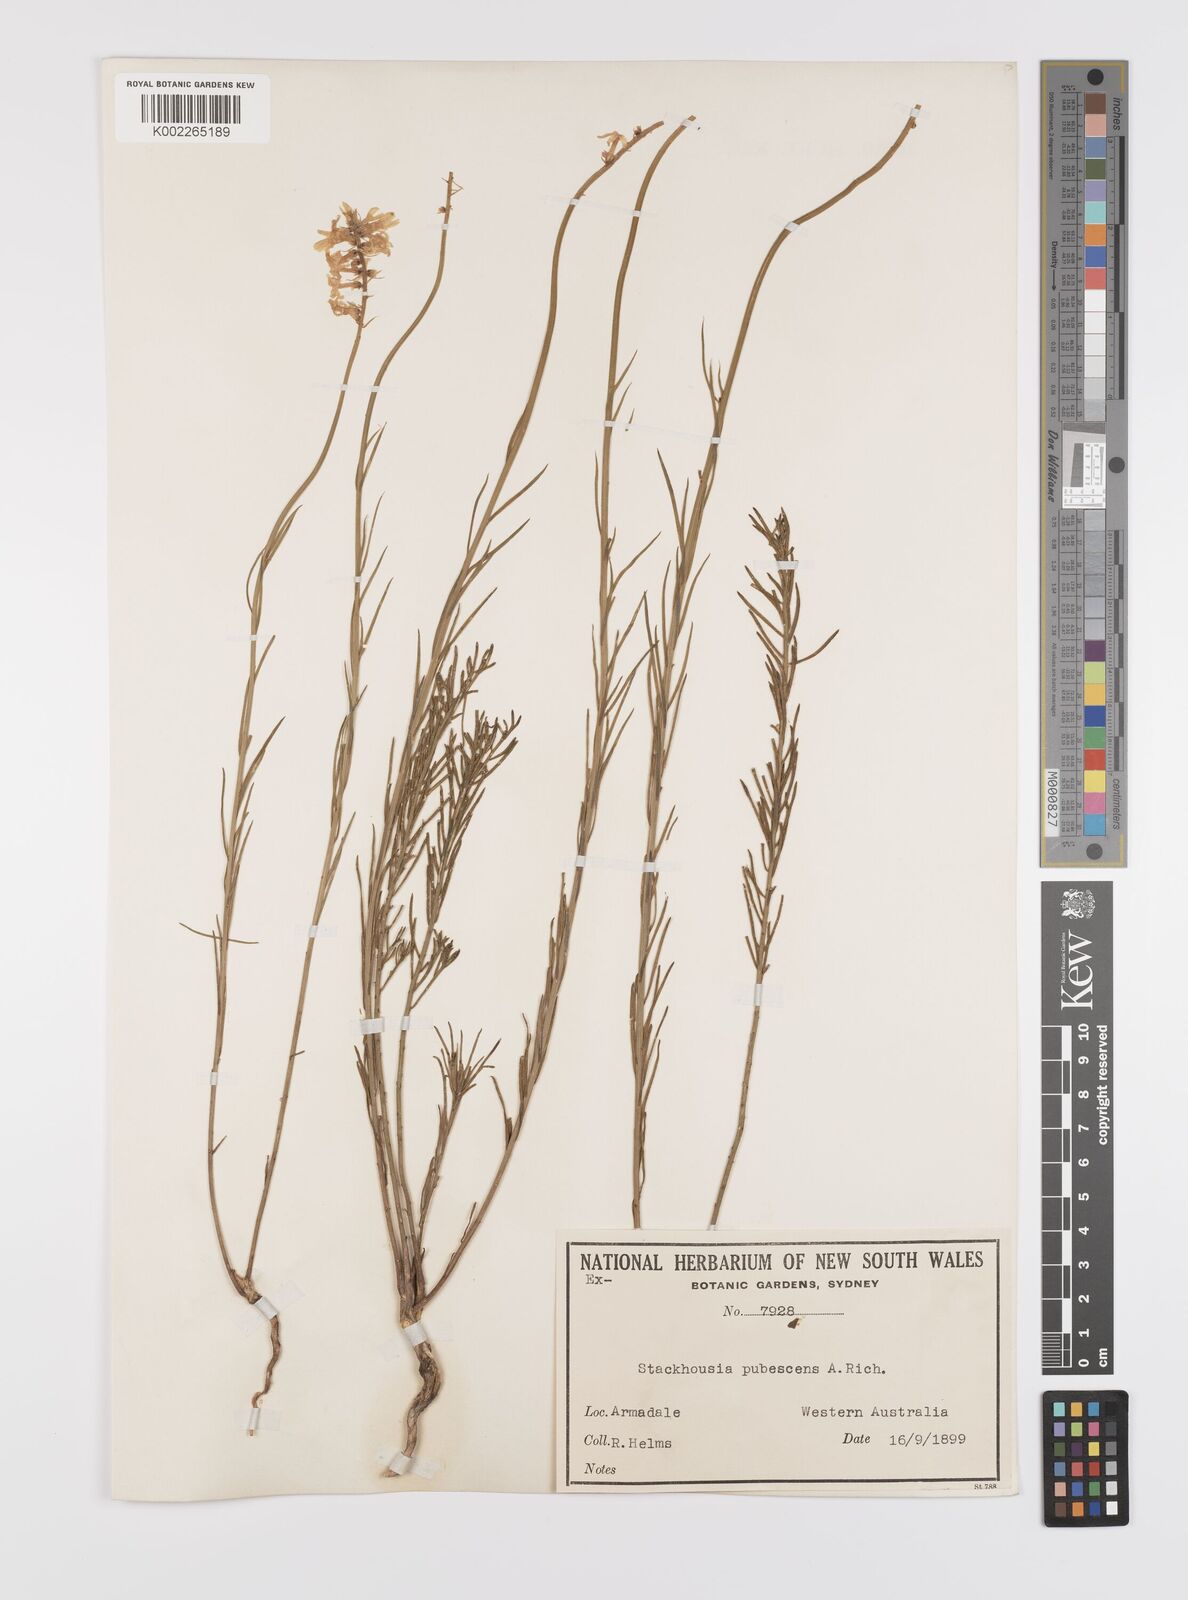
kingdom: Plantae
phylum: Tracheophyta
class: Magnoliopsida
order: Celastrales
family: Celastraceae
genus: Stackhousia
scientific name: Stackhousia monogyna
